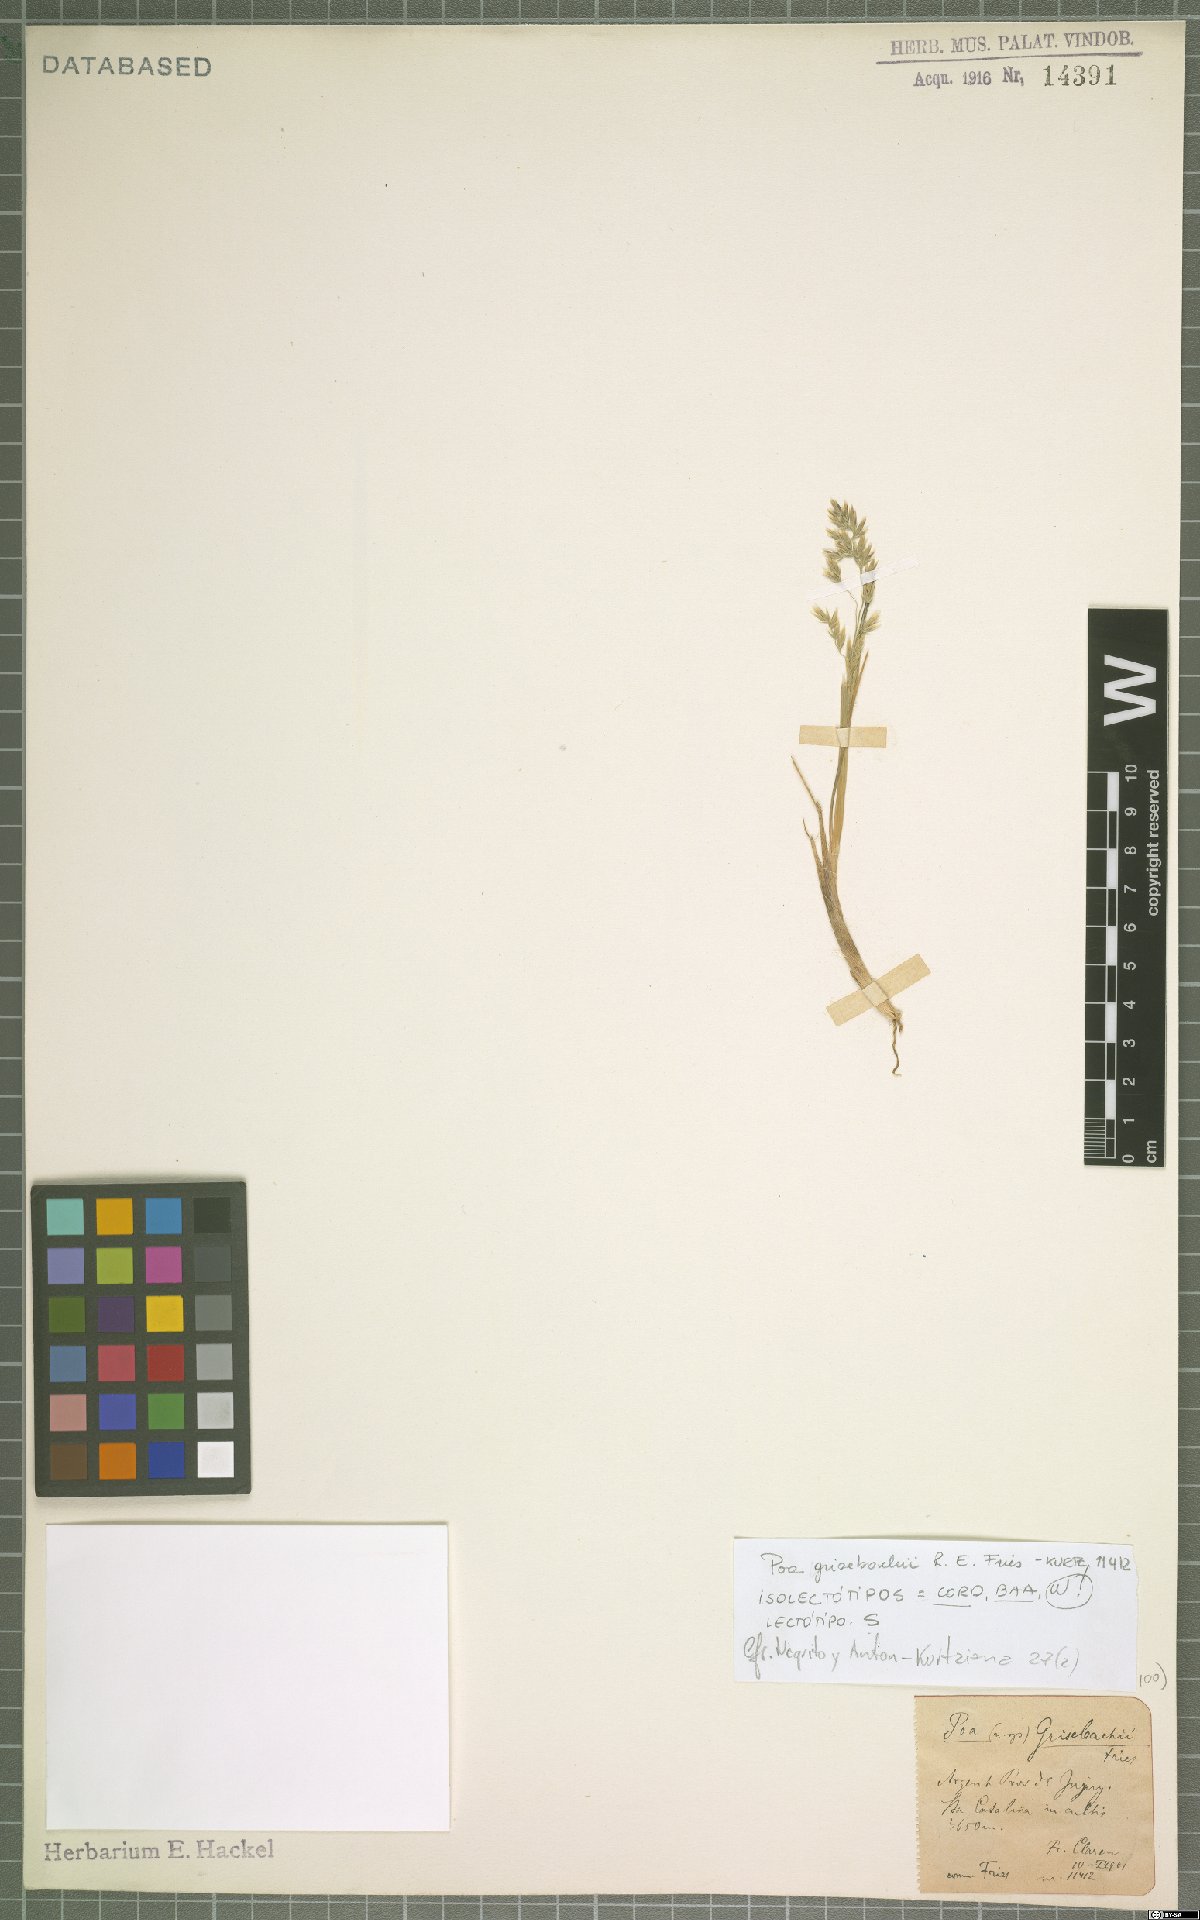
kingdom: Plantae
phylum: Tracheophyta
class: Liliopsida
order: Poales
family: Poaceae
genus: Poa
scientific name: Poa grisebachii
